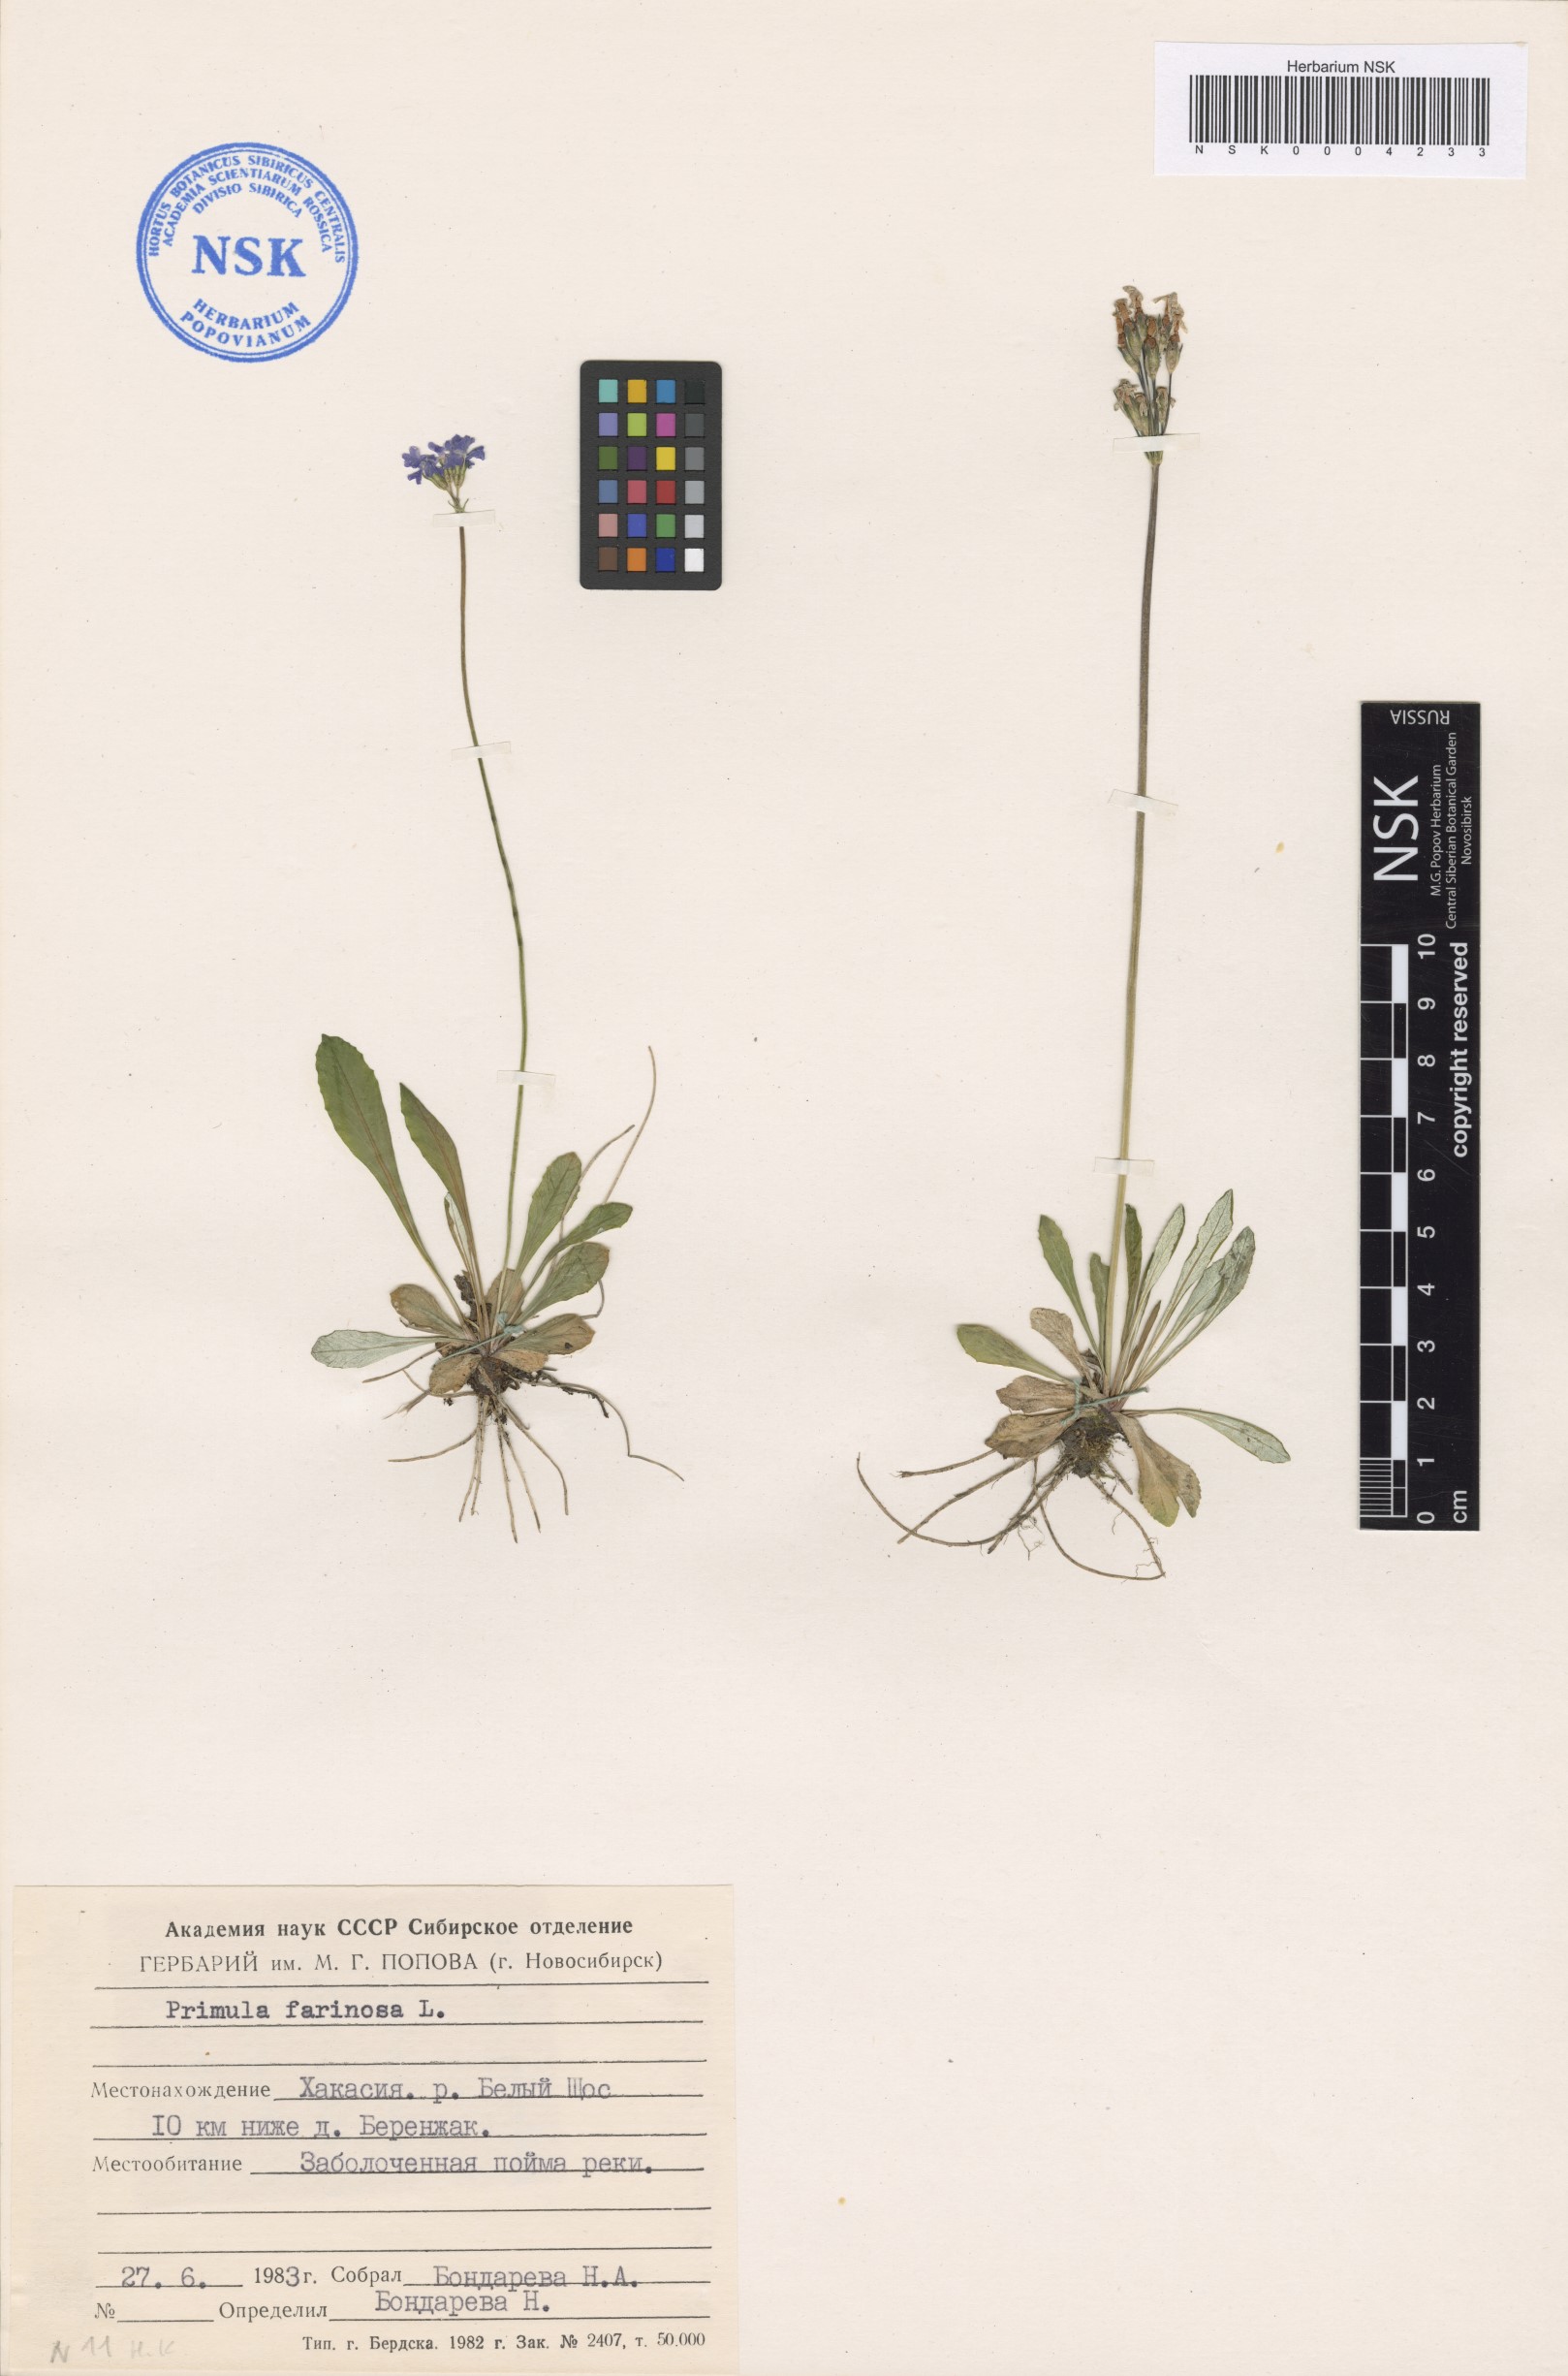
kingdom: Plantae
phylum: Tracheophyta
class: Magnoliopsida
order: Ericales
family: Primulaceae
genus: Primula
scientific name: Primula farinosa
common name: Bird's-eye primrose
